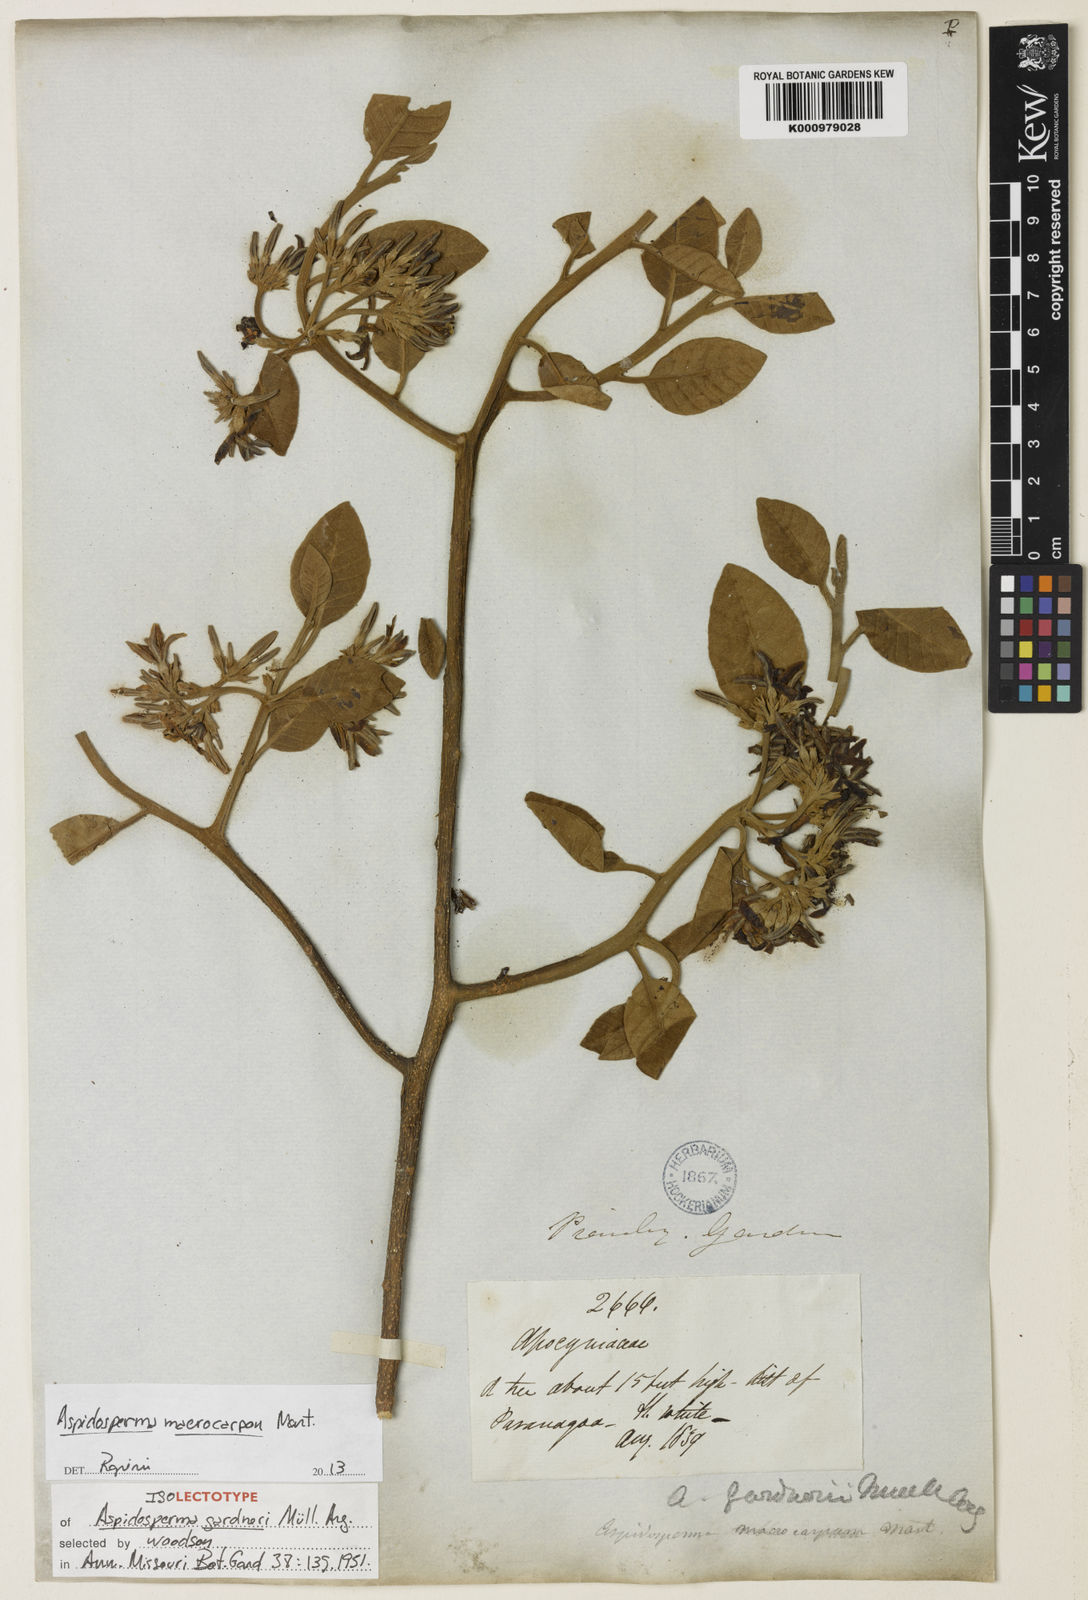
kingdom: Plantae
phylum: Tracheophyta
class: Magnoliopsida
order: Gentianales
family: Apocynaceae
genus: Aspidosperma
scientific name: Aspidosperma macrocarpon
